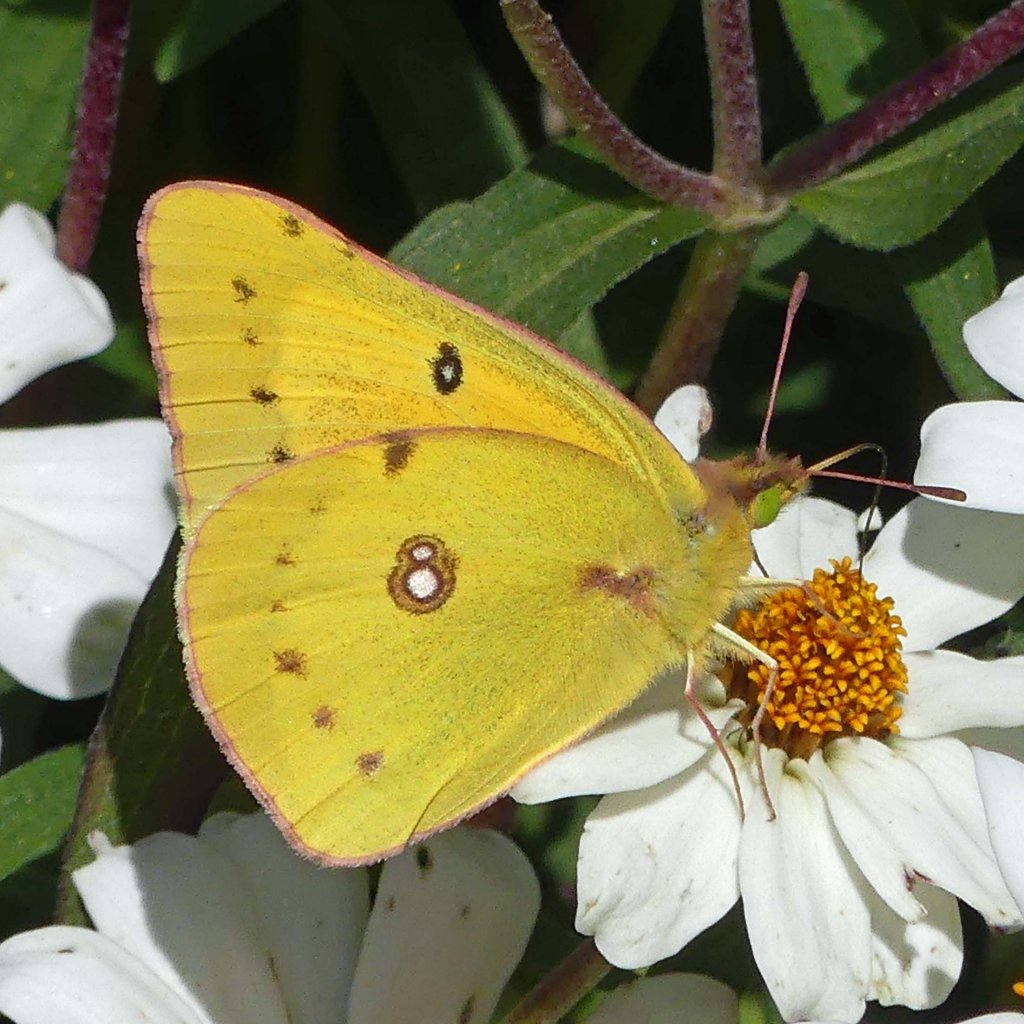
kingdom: Animalia
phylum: Arthropoda
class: Insecta
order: Lepidoptera
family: Pieridae
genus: Colias
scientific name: Colias eurytheme
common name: Orange Sulphur
